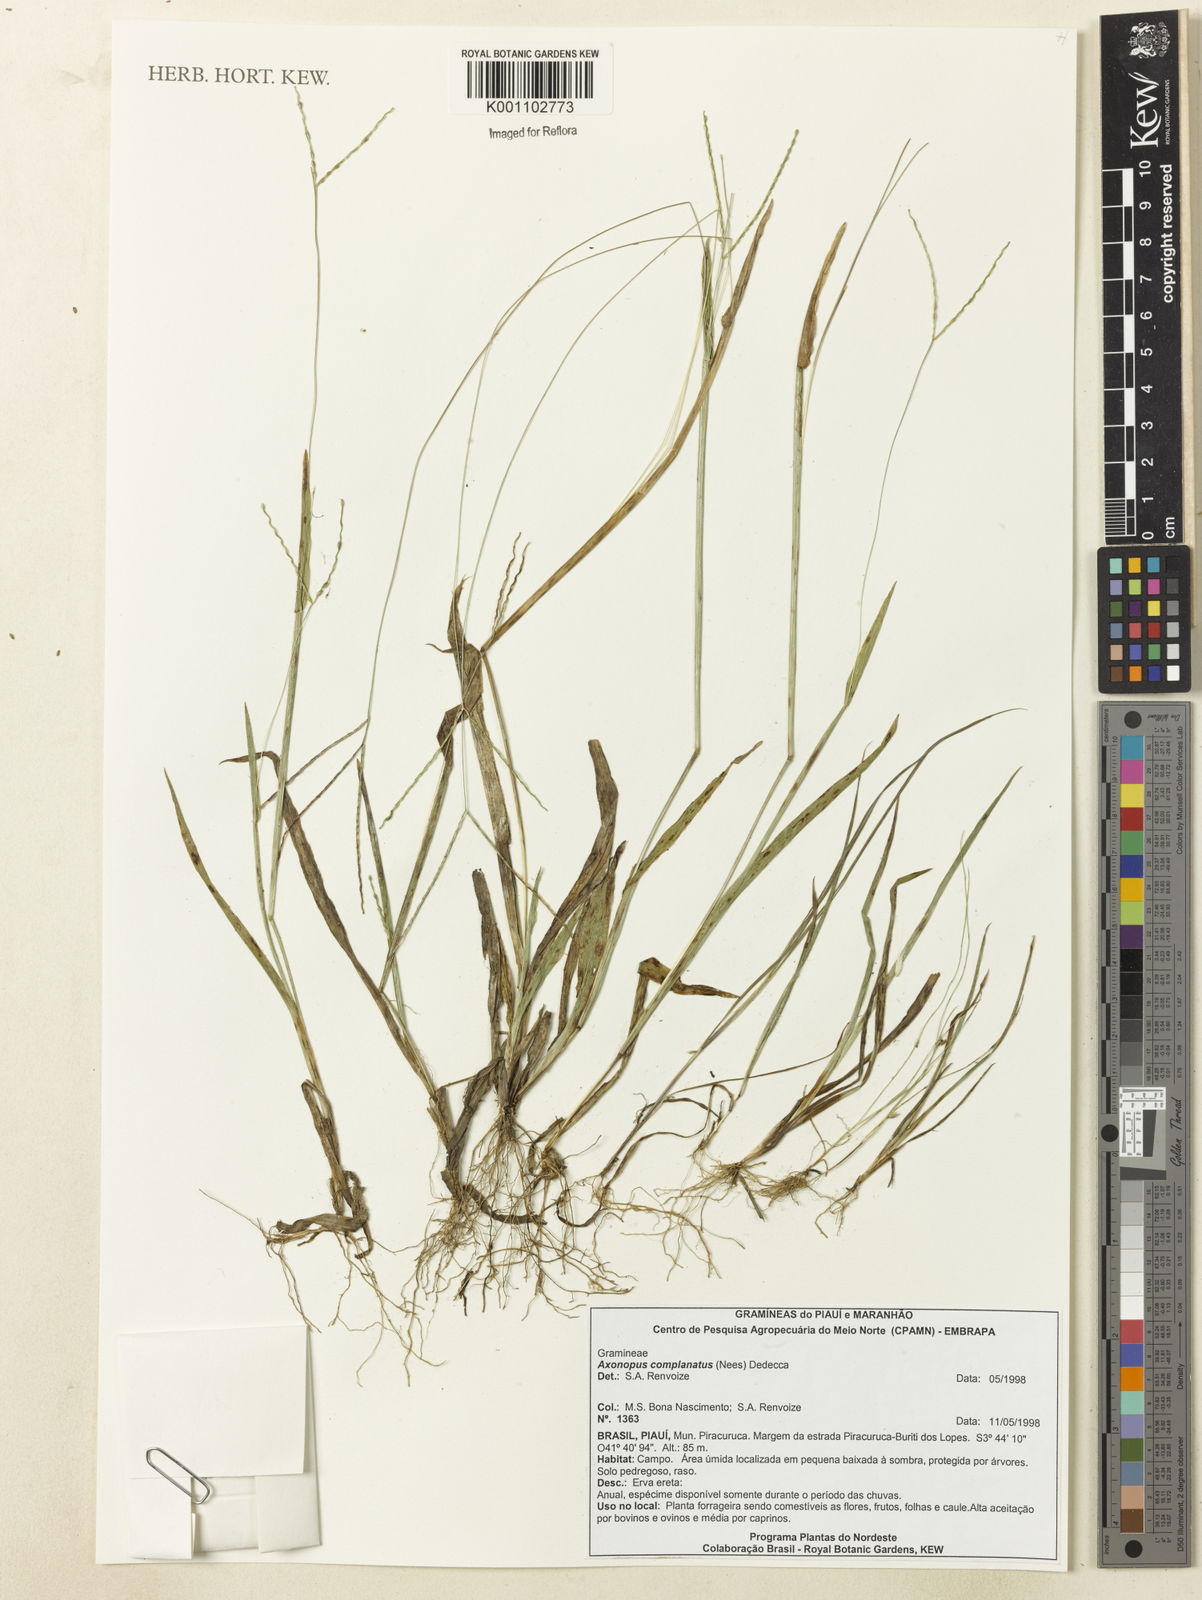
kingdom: Plantae
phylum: Tracheophyta
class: Liliopsida
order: Poales
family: Poaceae
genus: Axonopus
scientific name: Axonopus complanatus
